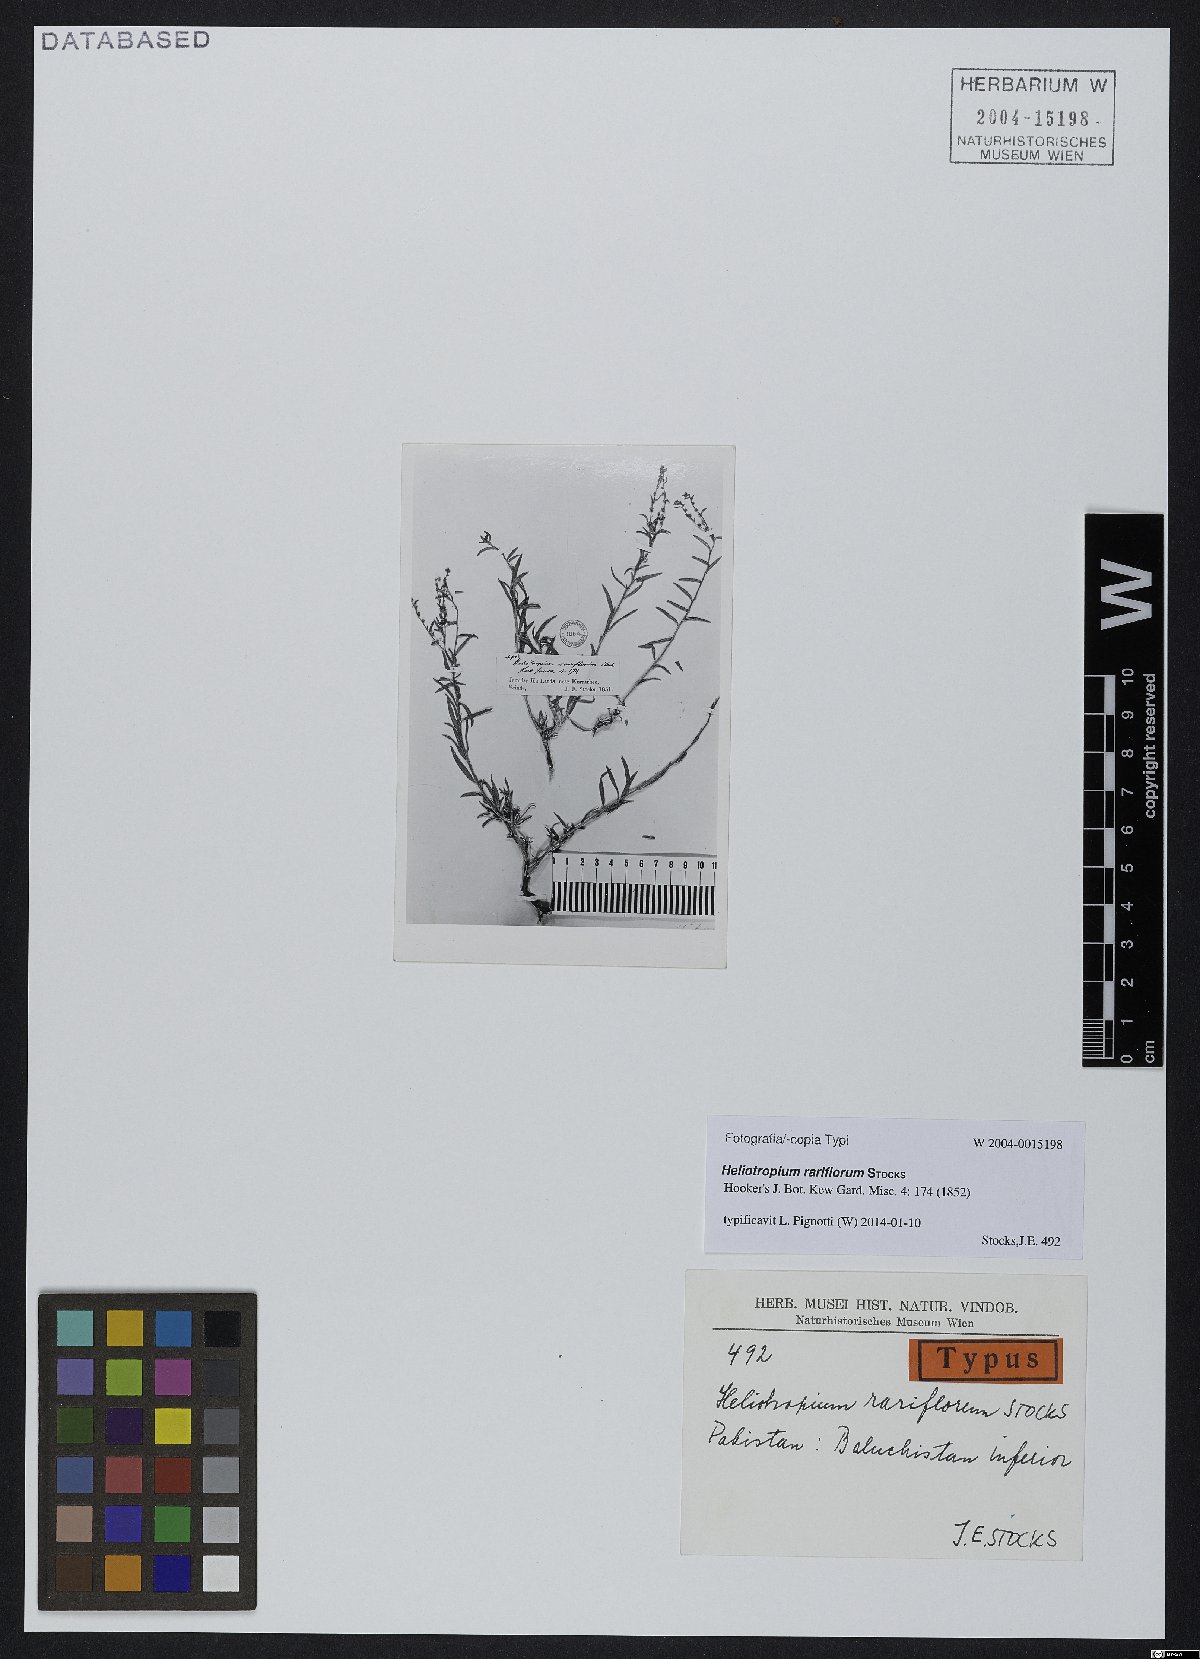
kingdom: Plantae
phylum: Tracheophyta
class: Magnoliopsida
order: Boraginales
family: Heliotropiaceae
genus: Euploca
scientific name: Euploca rariflora
